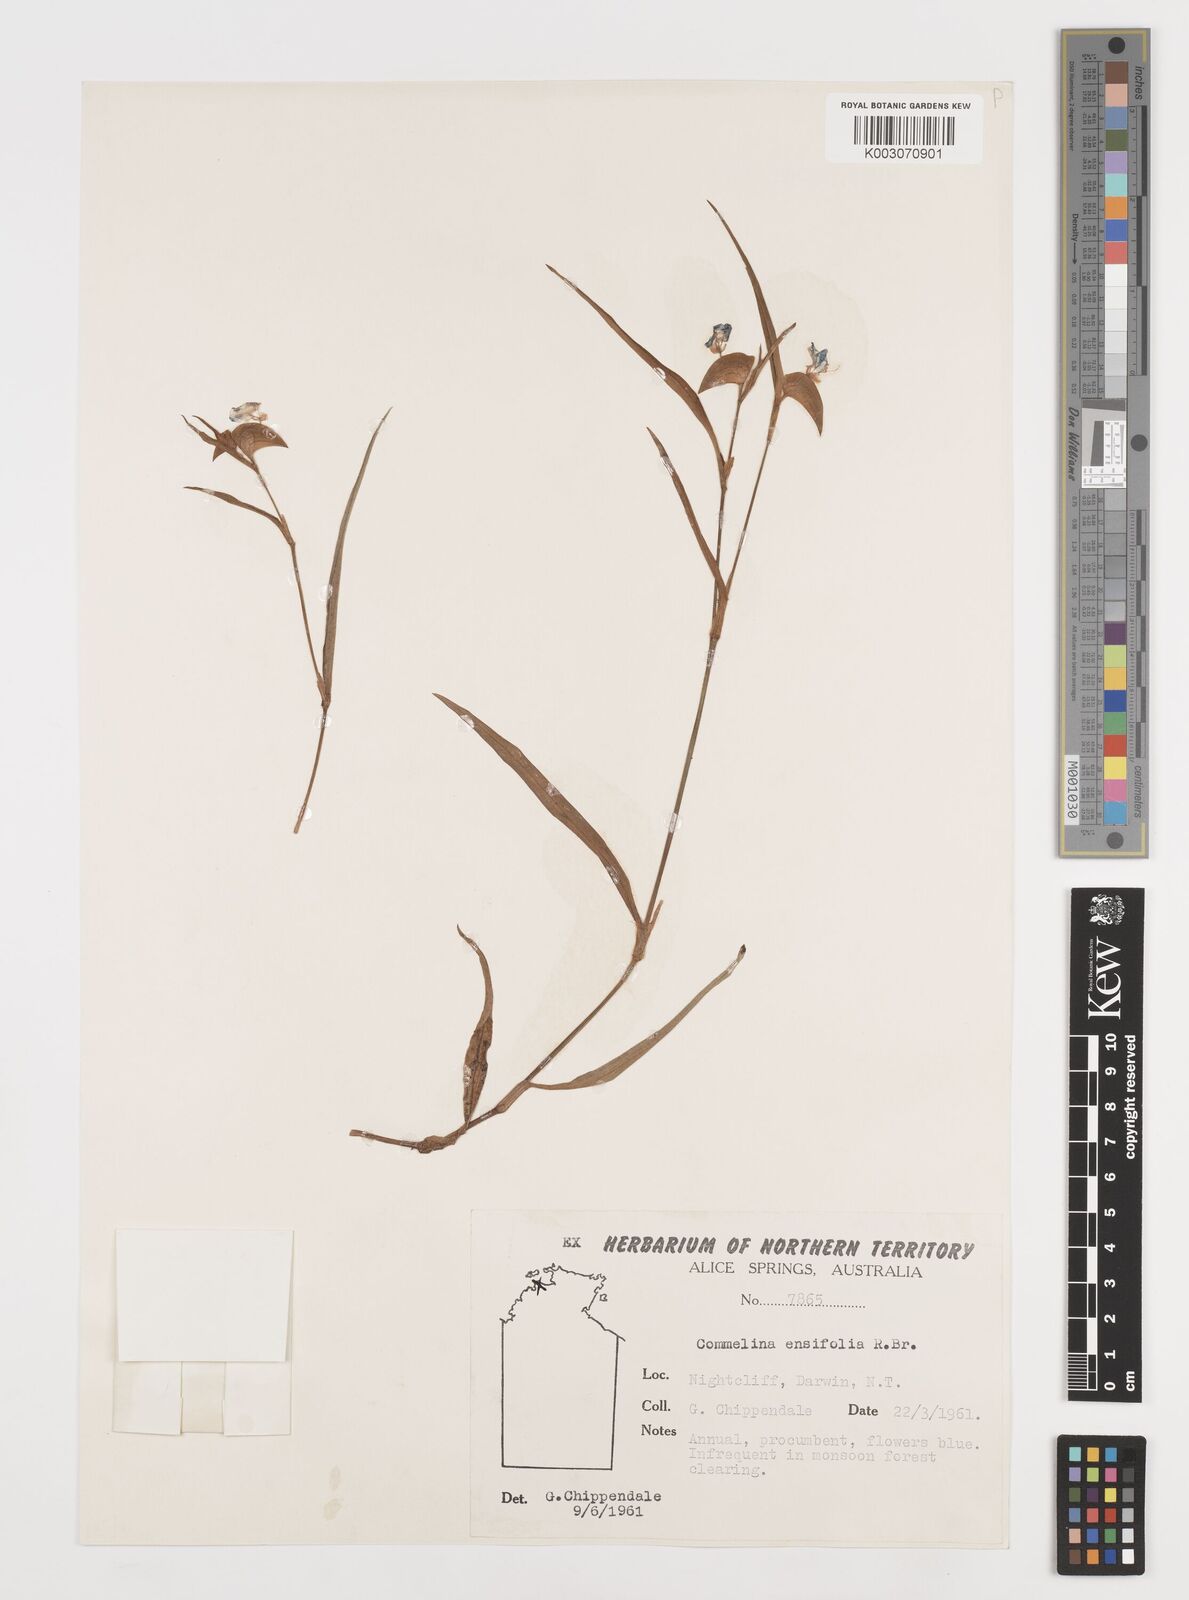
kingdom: Plantae
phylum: Tracheophyta
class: Liliopsida
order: Commelinales
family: Commelinaceae
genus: Commelina
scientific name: Commelina ensifolia
